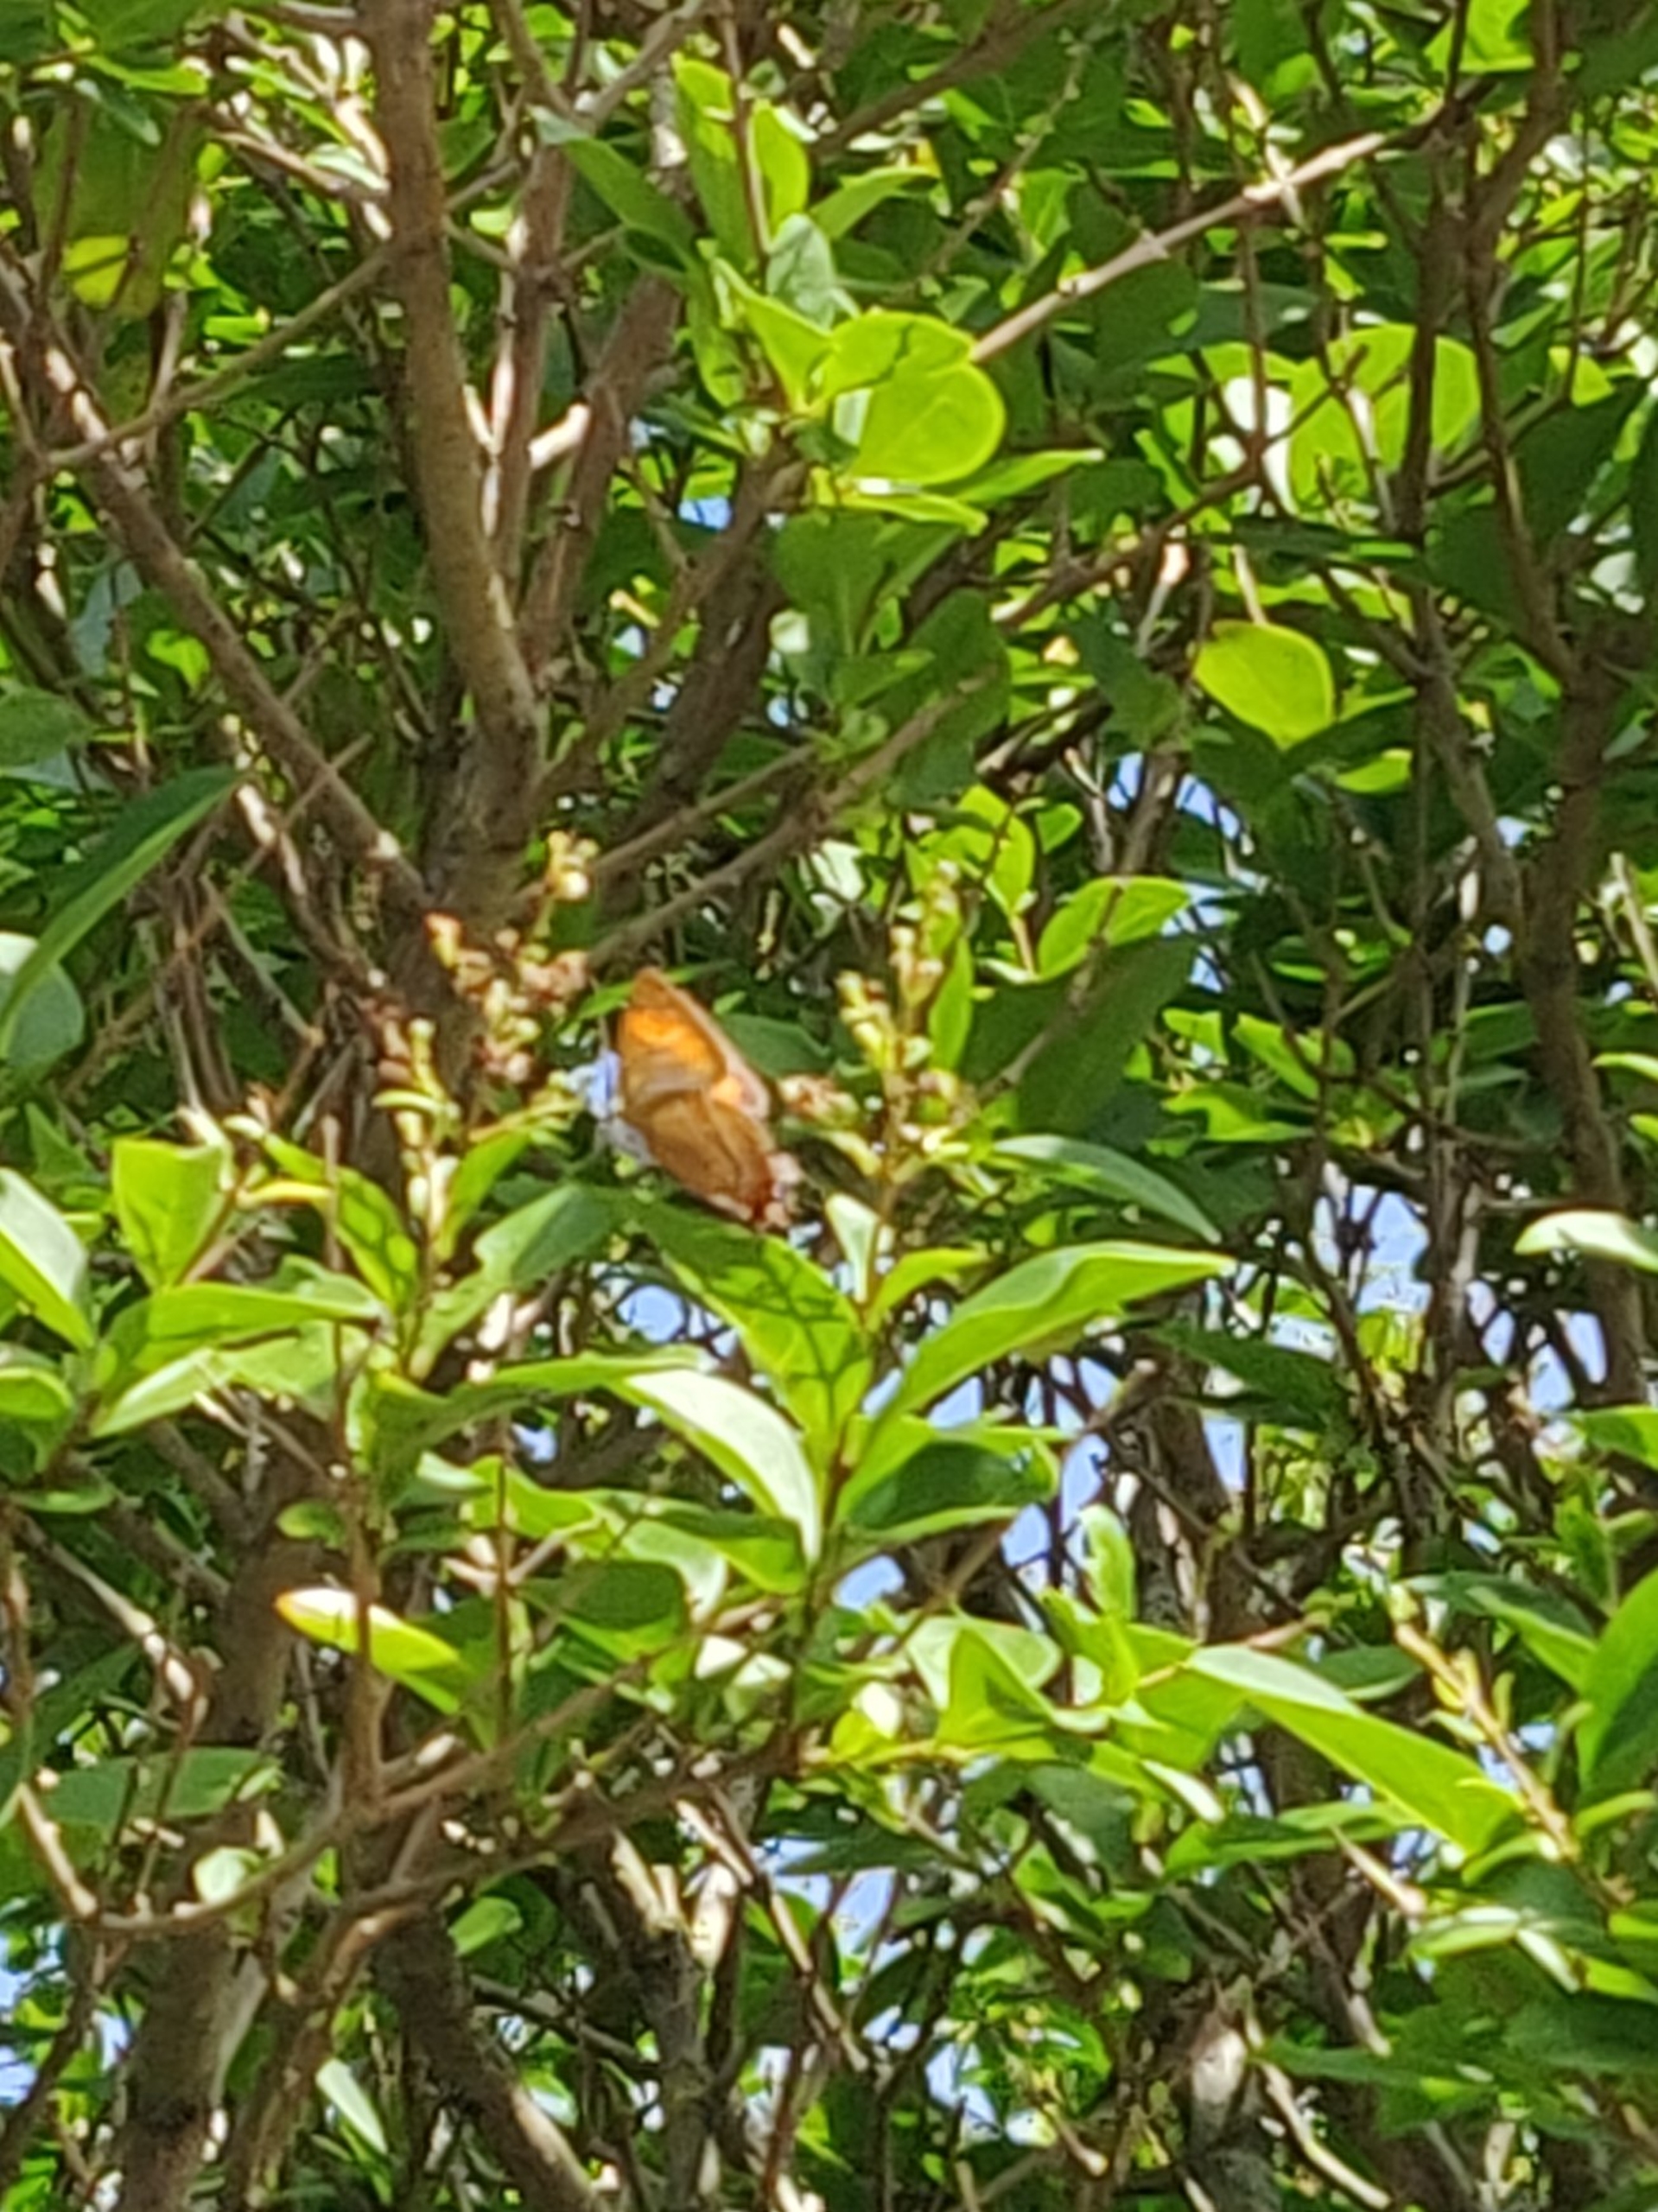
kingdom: Animalia
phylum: Arthropoda
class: Insecta
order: Lepidoptera
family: Lycaenidae
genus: Thecla
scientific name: Thecla betulae
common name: Guldhale
